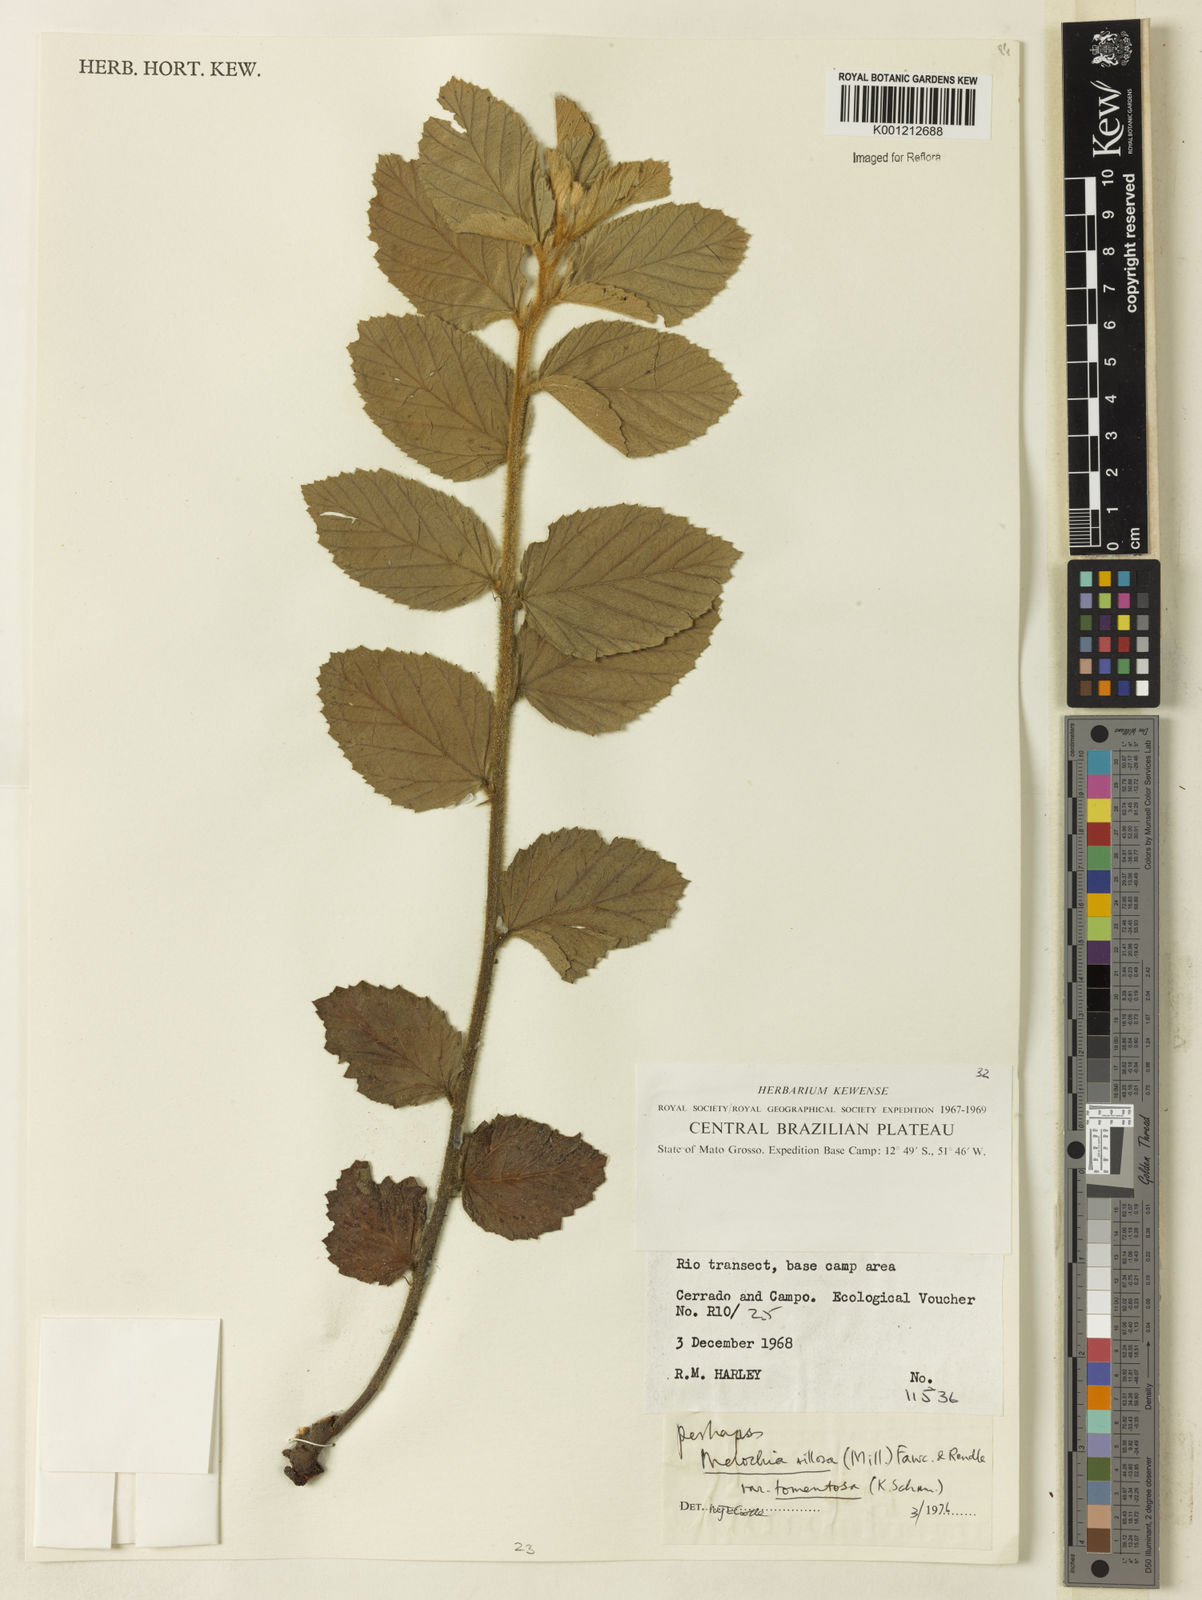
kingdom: Plantae
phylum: Tracheophyta
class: Magnoliopsida
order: Malvales
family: Malvaceae
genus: Melochia
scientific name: Melochia spicata
